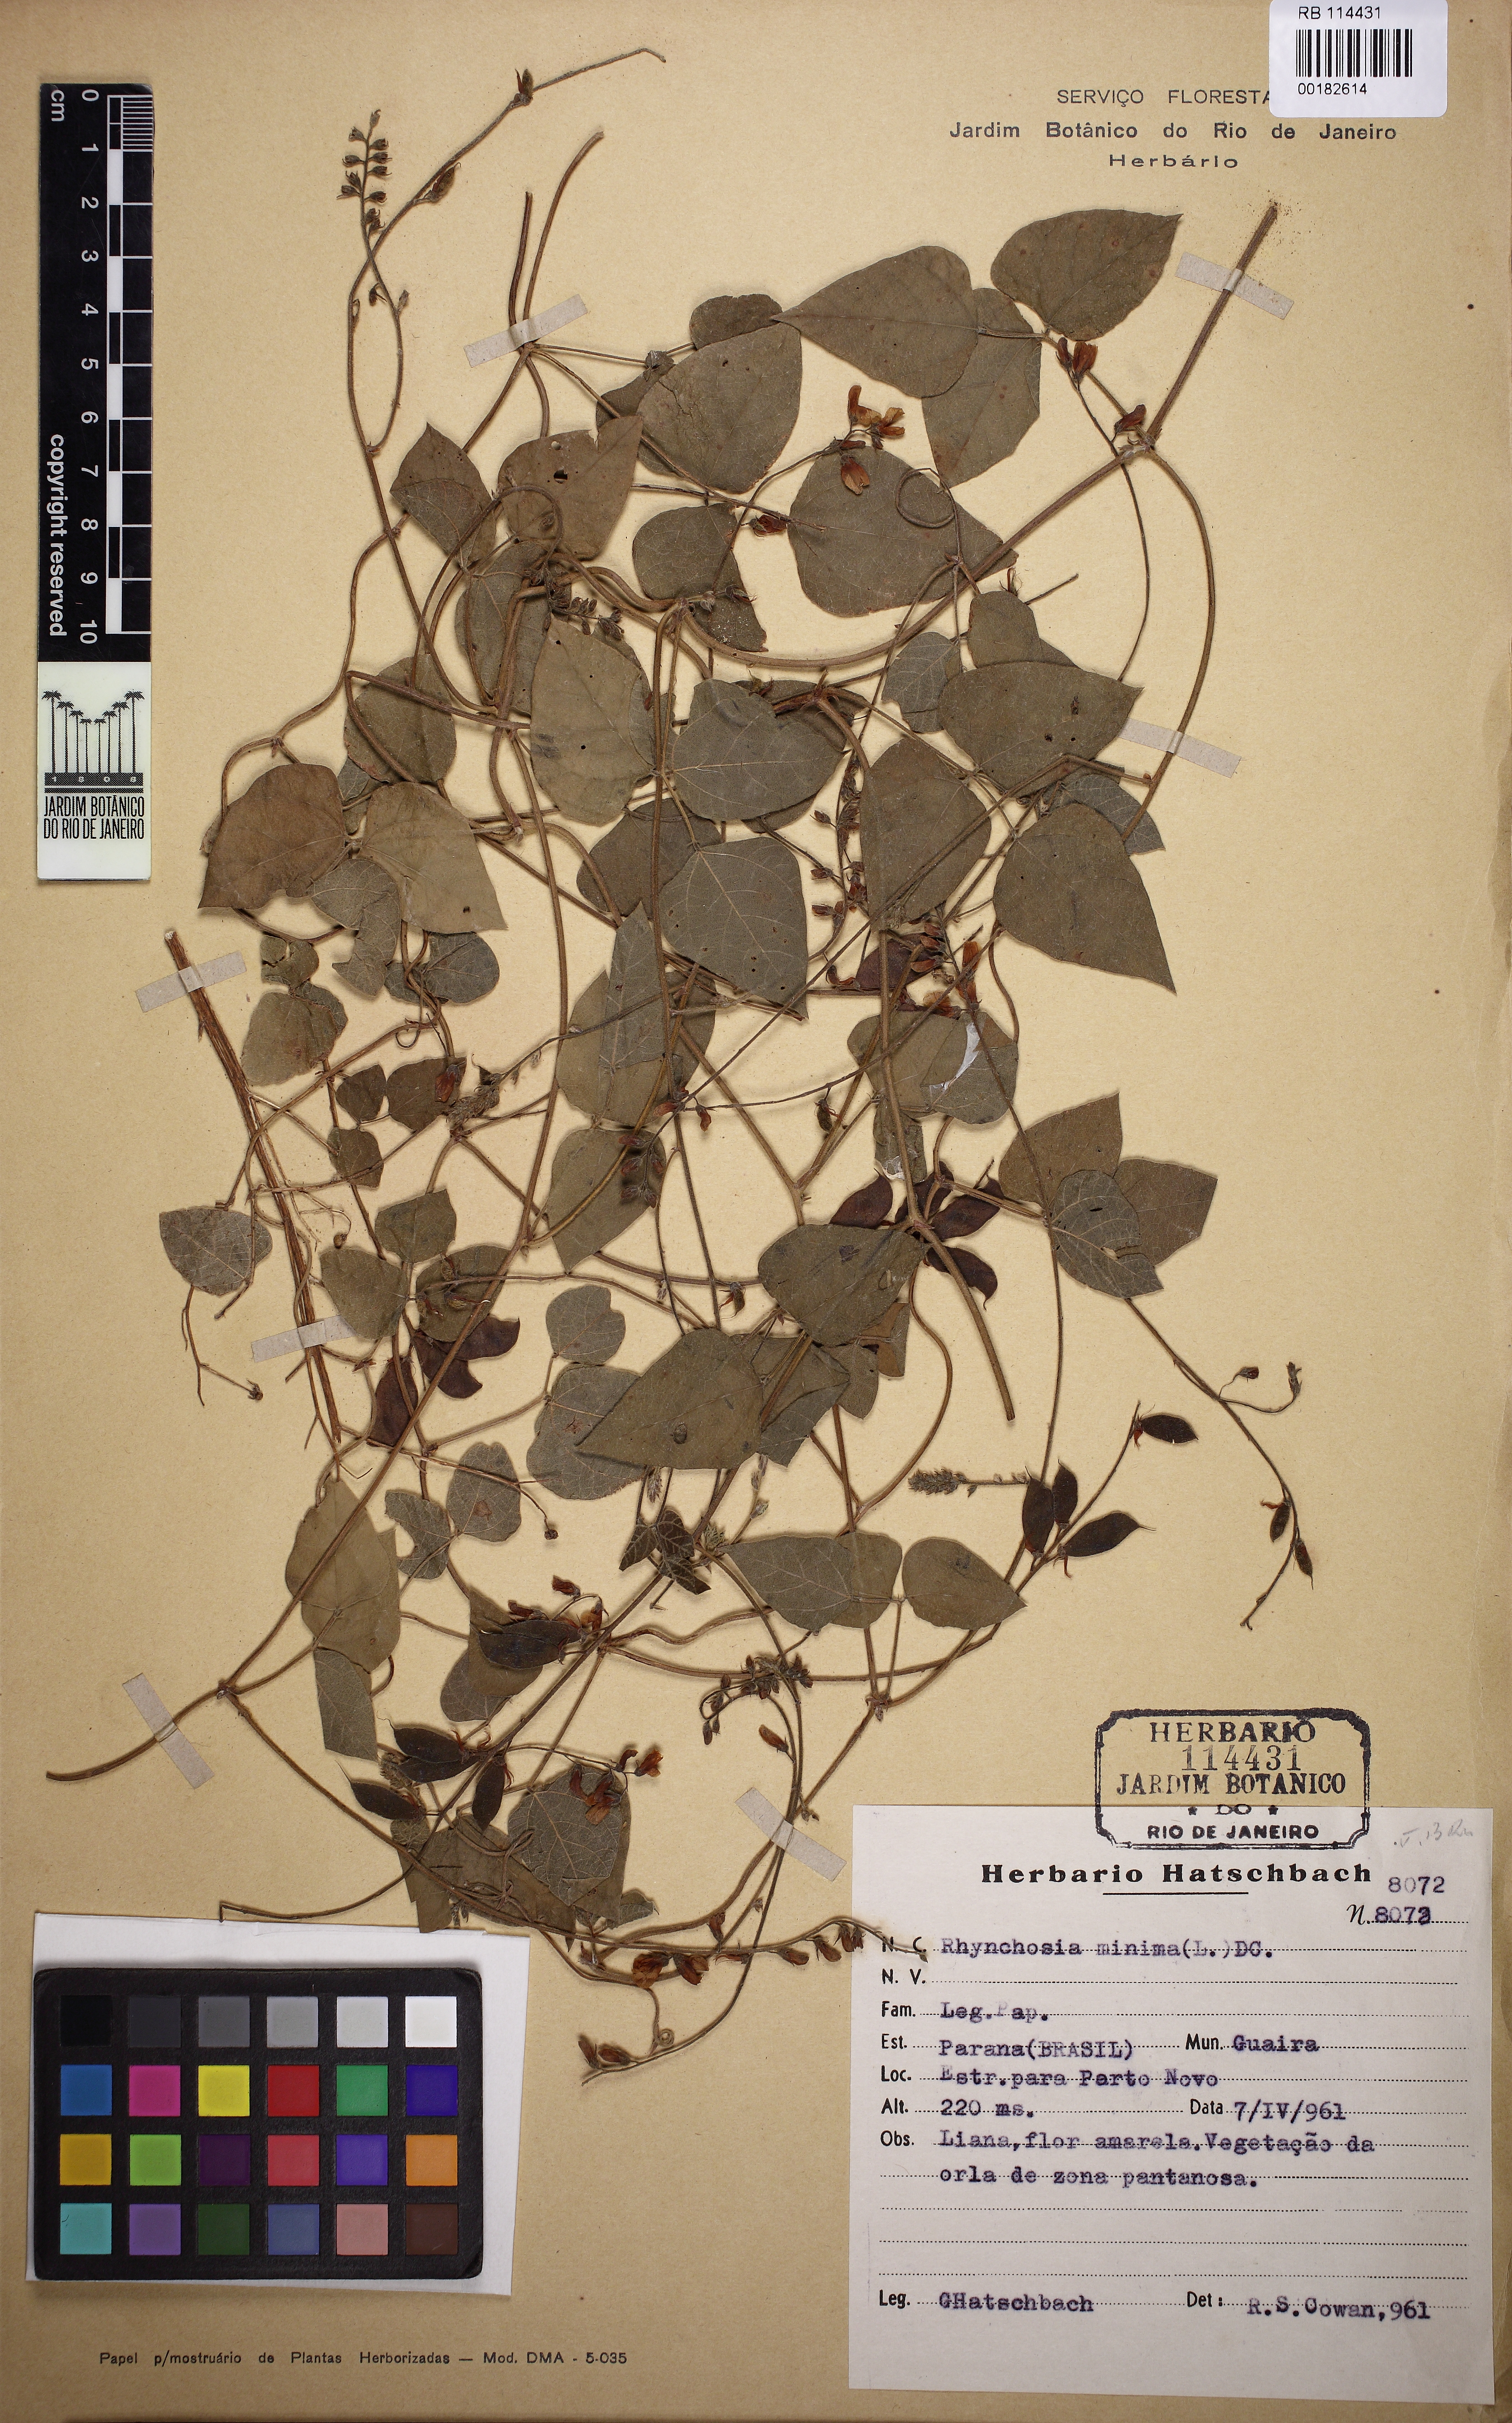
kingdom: Plantae
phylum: Tracheophyta
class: Magnoliopsida
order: Fabales
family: Fabaceae
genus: Rhynchosia
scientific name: Rhynchosia edulis
